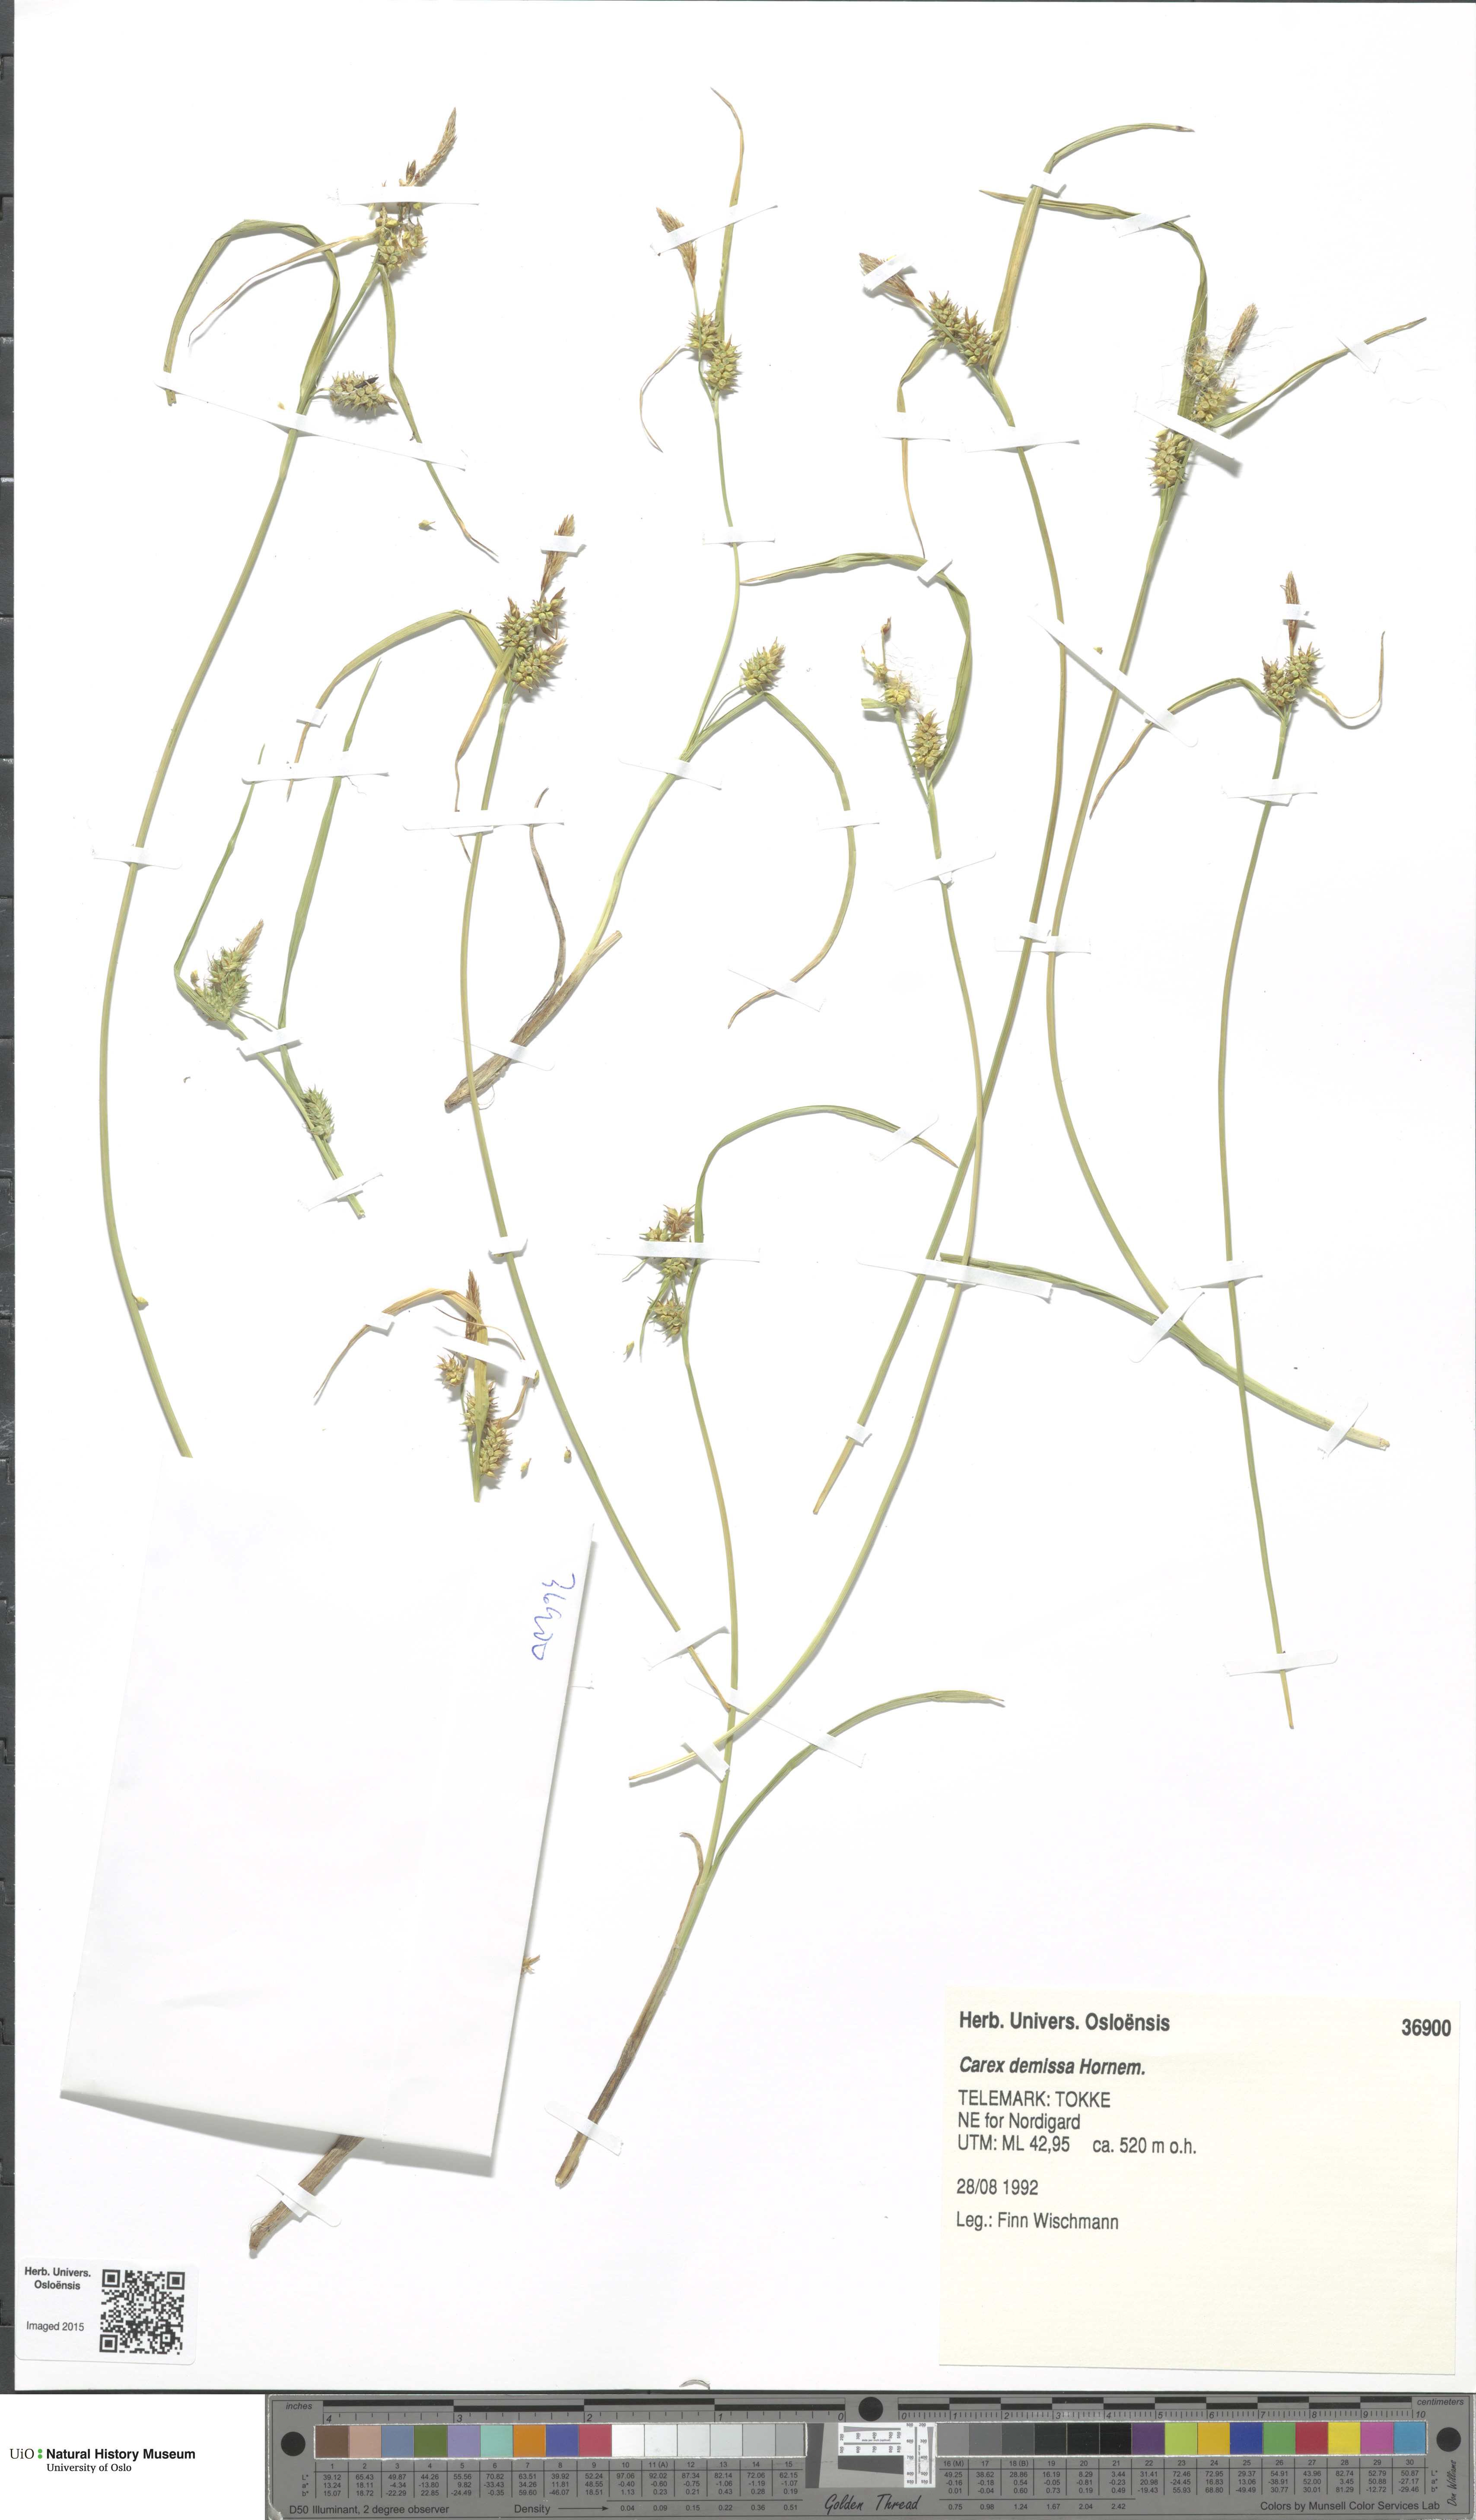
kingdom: Plantae
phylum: Tracheophyta
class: Liliopsida
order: Poales
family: Cyperaceae
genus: Carex
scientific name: Carex demissa
